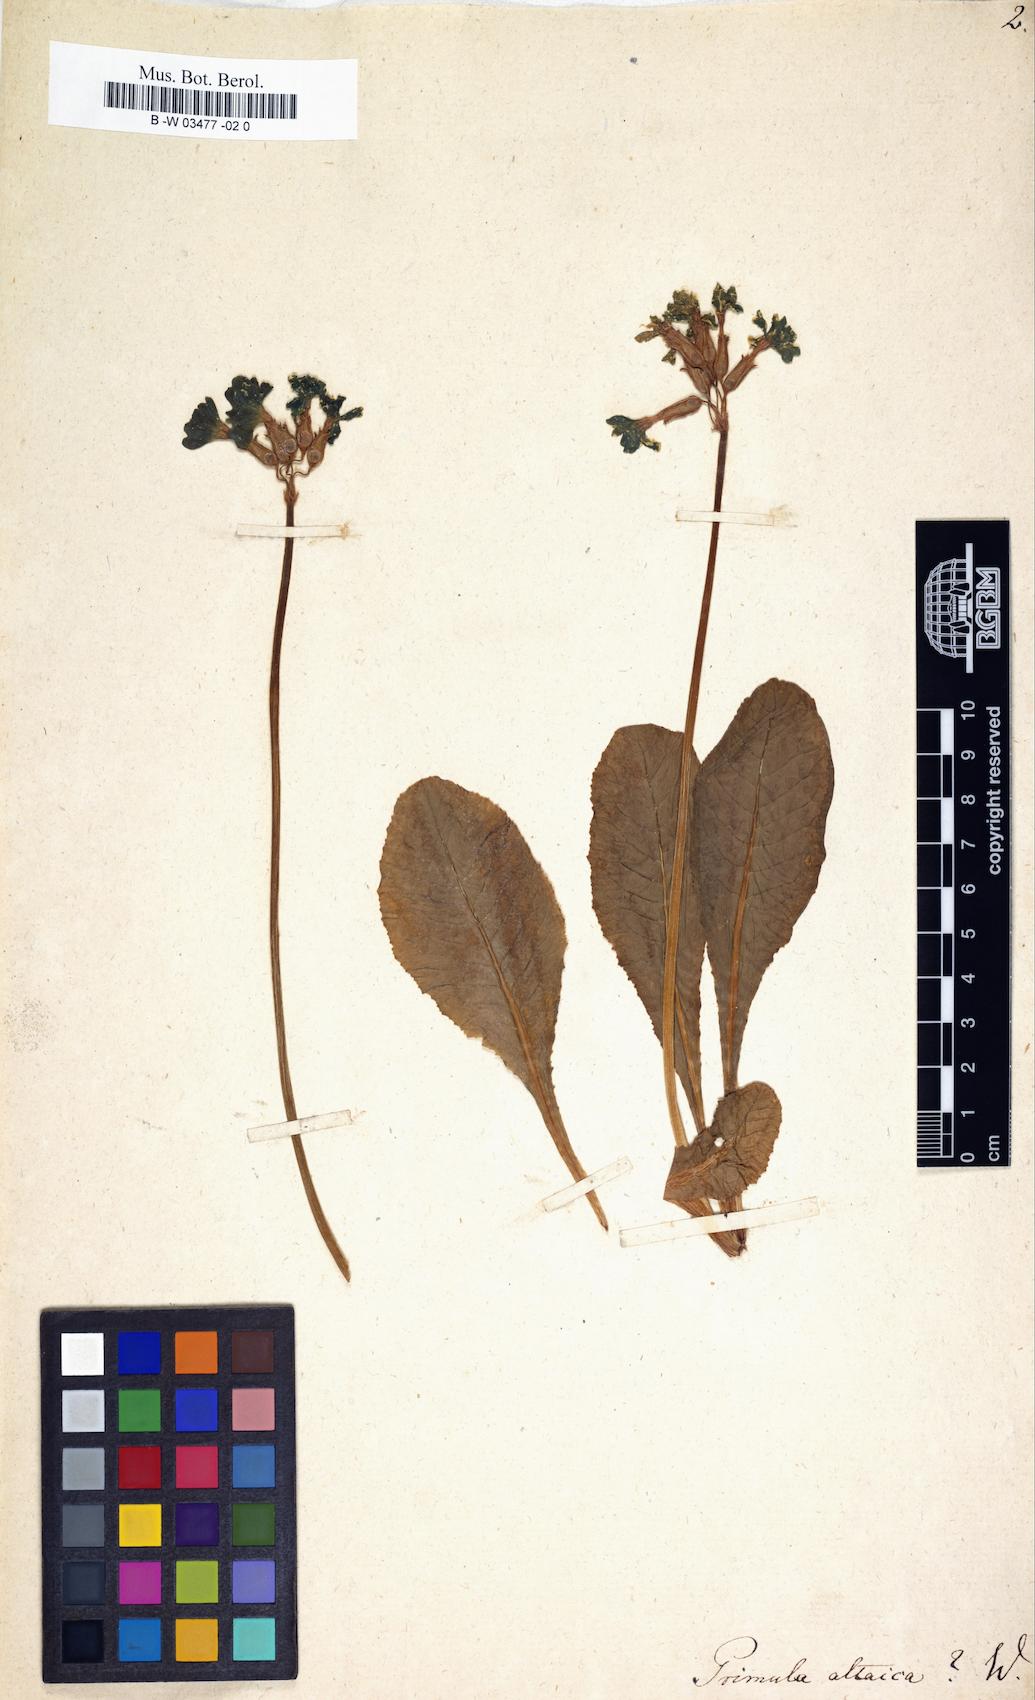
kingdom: Plantae
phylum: Tracheophyta
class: Magnoliopsida
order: Ericales
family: Primulaceae
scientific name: Primulaceae
